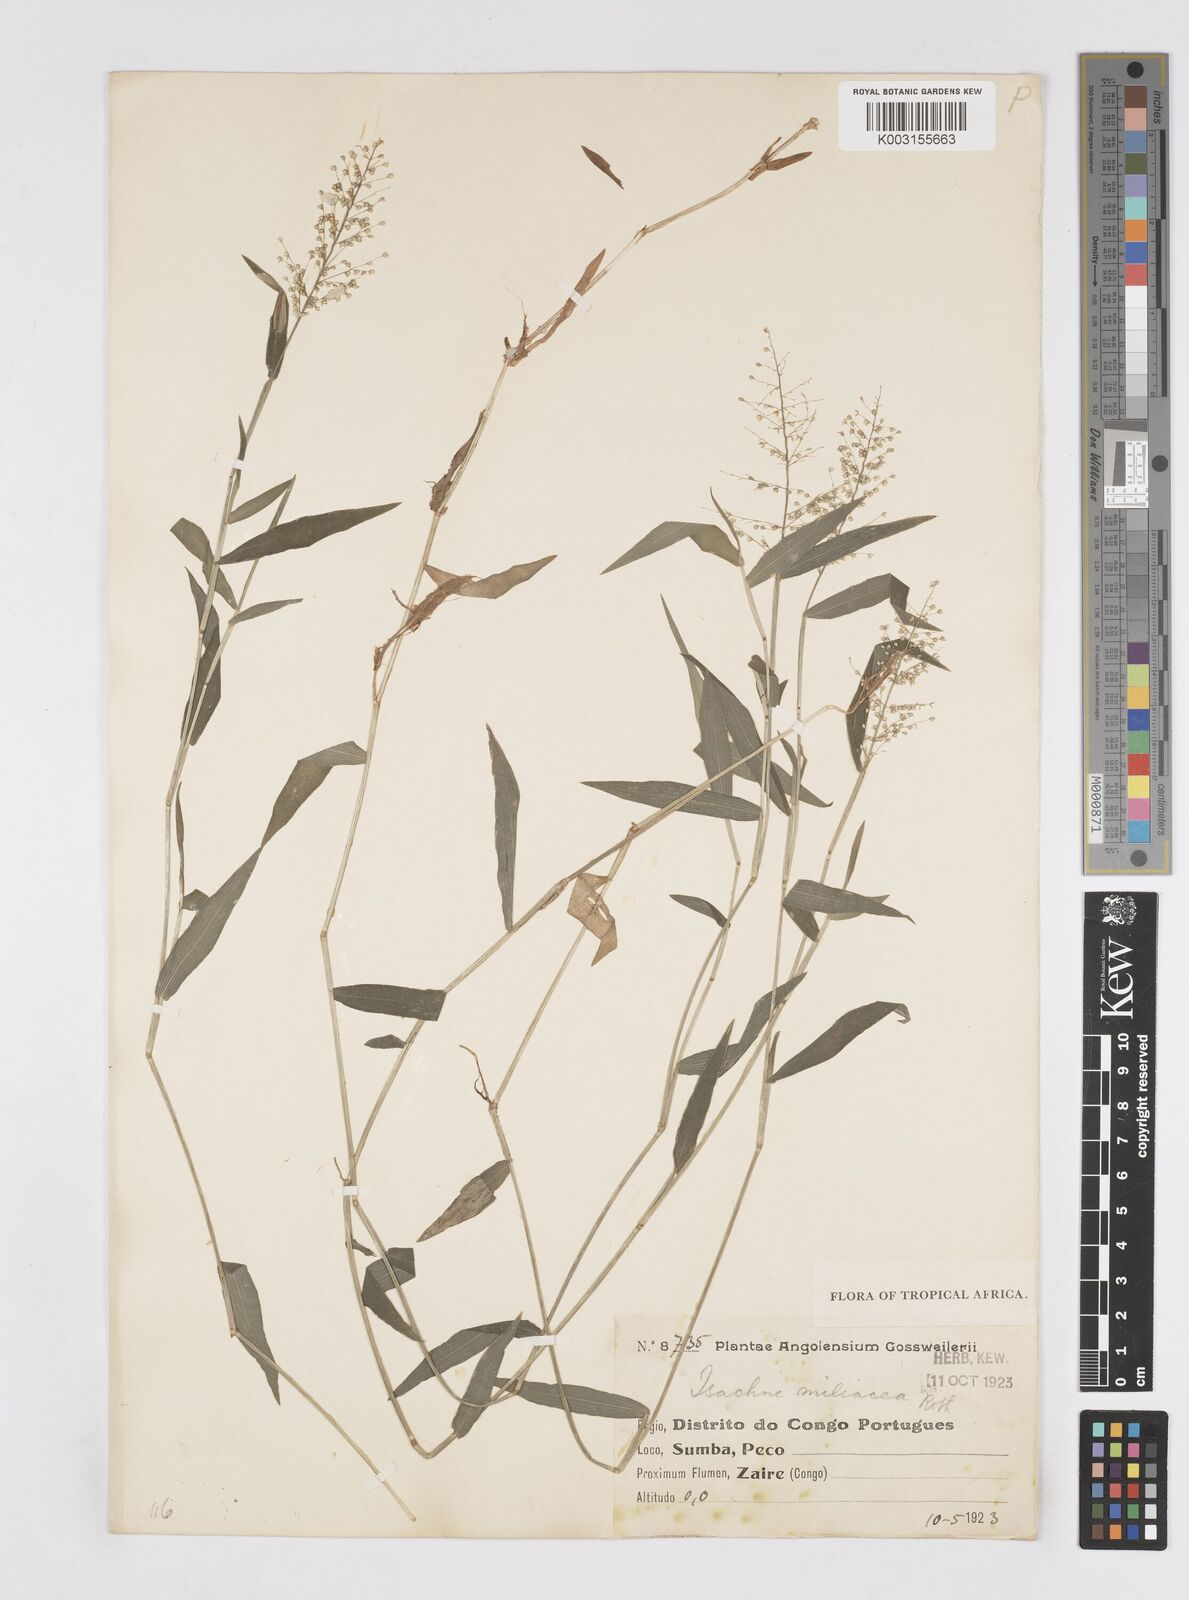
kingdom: Plantae
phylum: Tracheophyta
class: Liliopsida
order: Poales
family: Poaceae
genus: Isachne
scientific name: Isachne kiyalaensis
